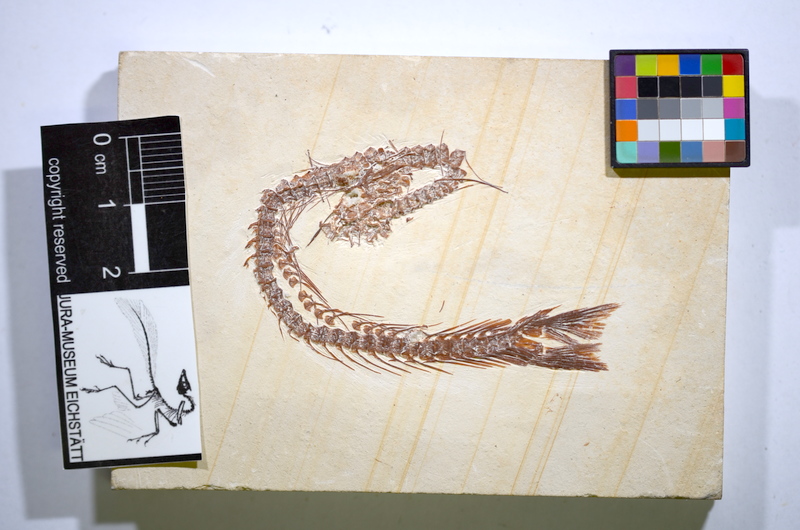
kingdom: Animalia
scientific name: Animalia
